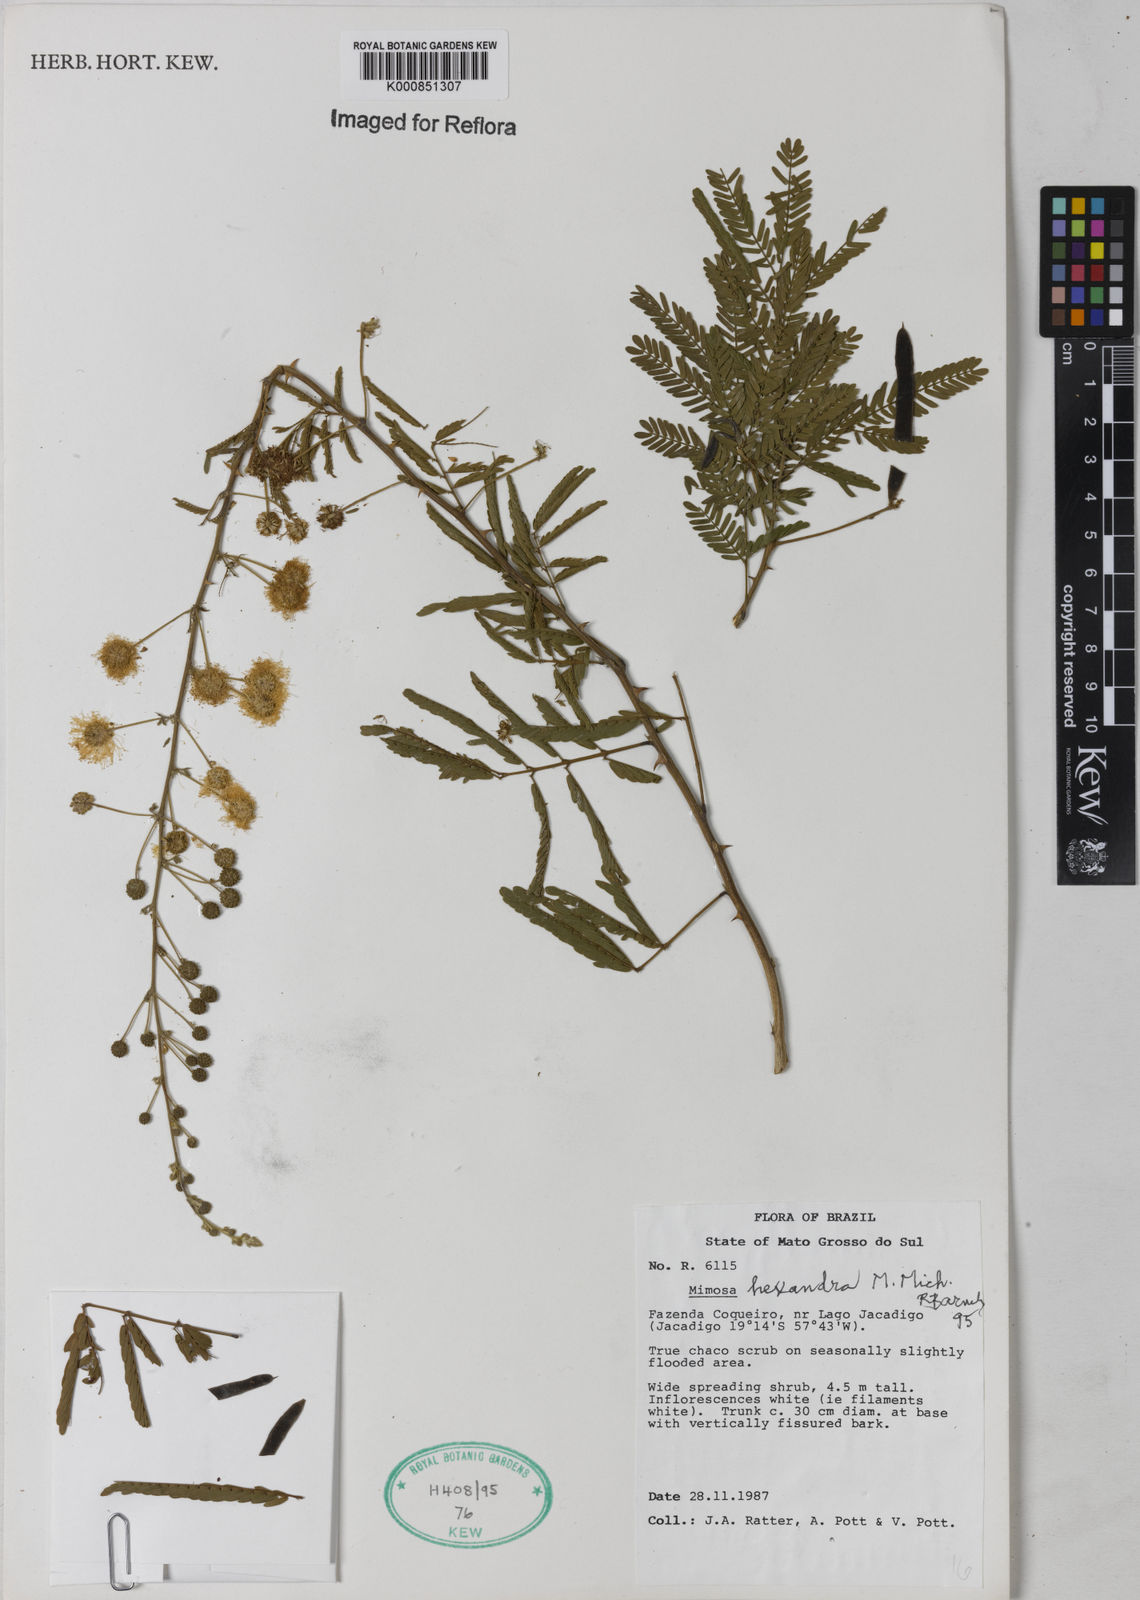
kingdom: Plantae
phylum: Tracheophyta
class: Magnoliopsida
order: Fabales
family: Fabaceae
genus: Mimosa
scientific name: Mimosa hexandra
